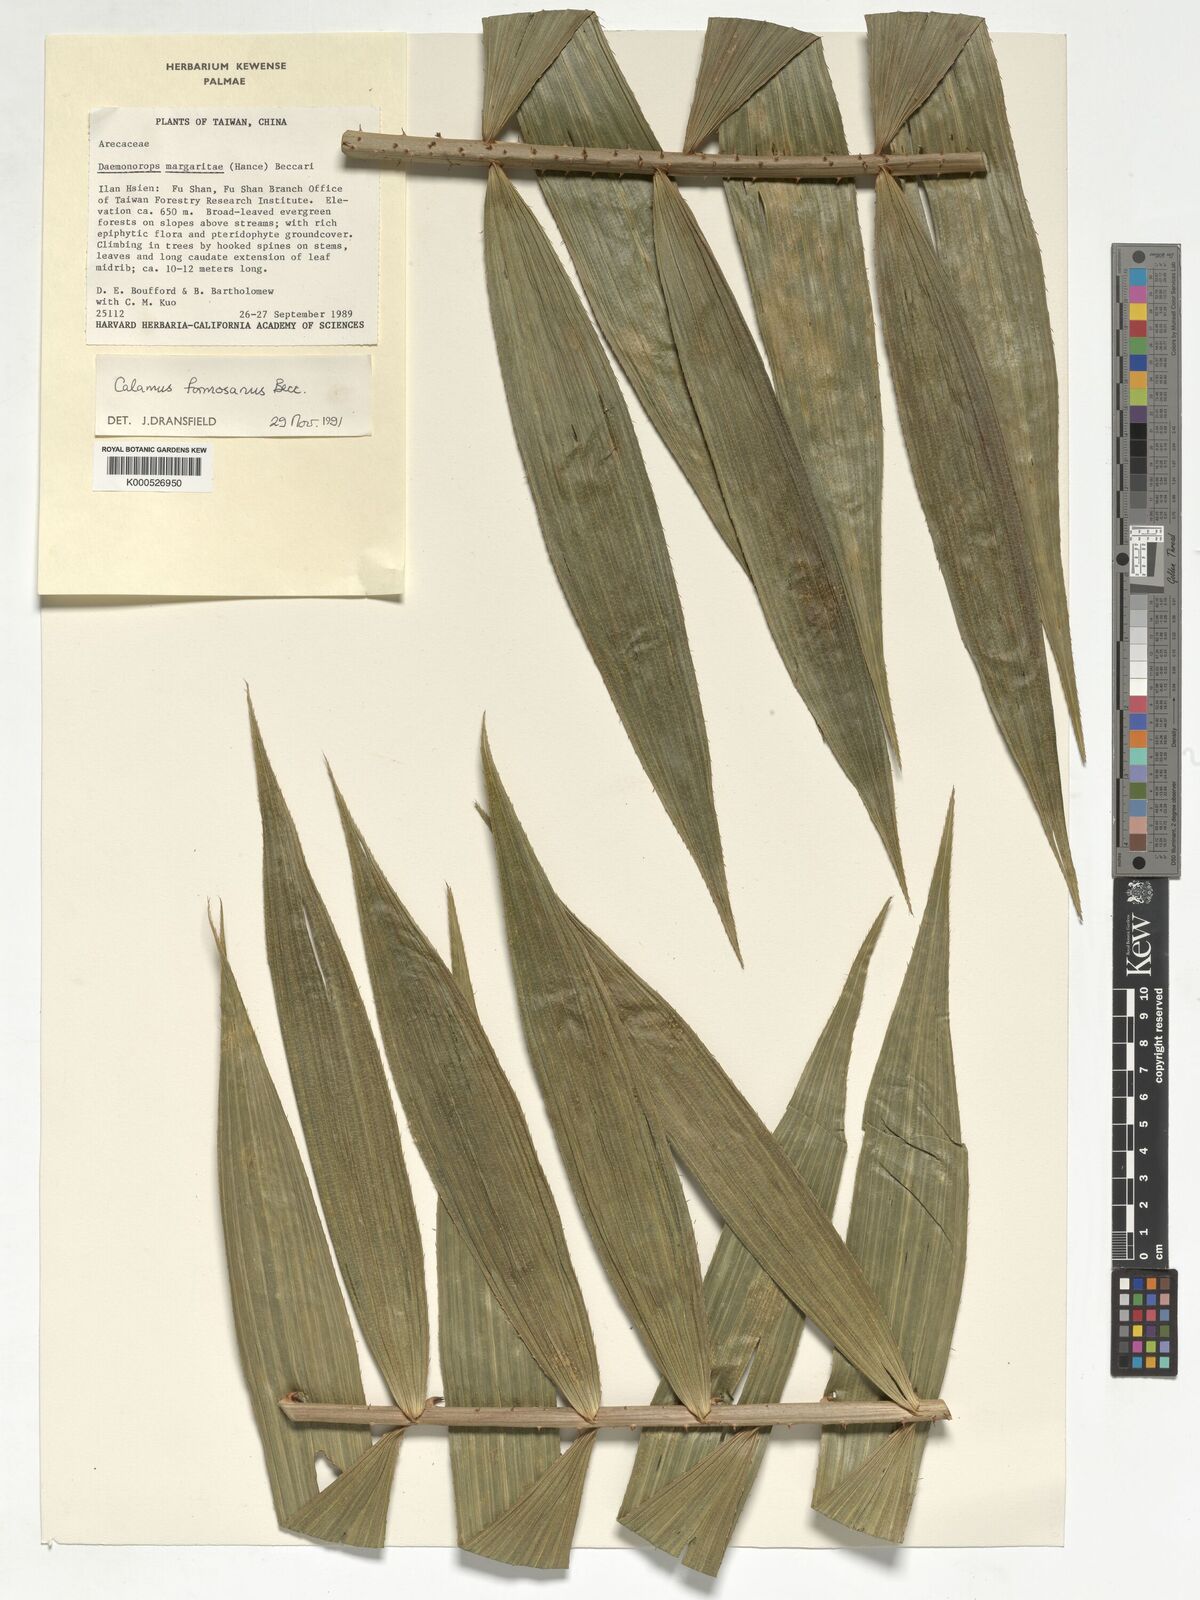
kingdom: Plantae
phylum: Tracheophyta
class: Liliopsida
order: Arecales
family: Arecaceae
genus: Calamus
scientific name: Calamus formosanus
